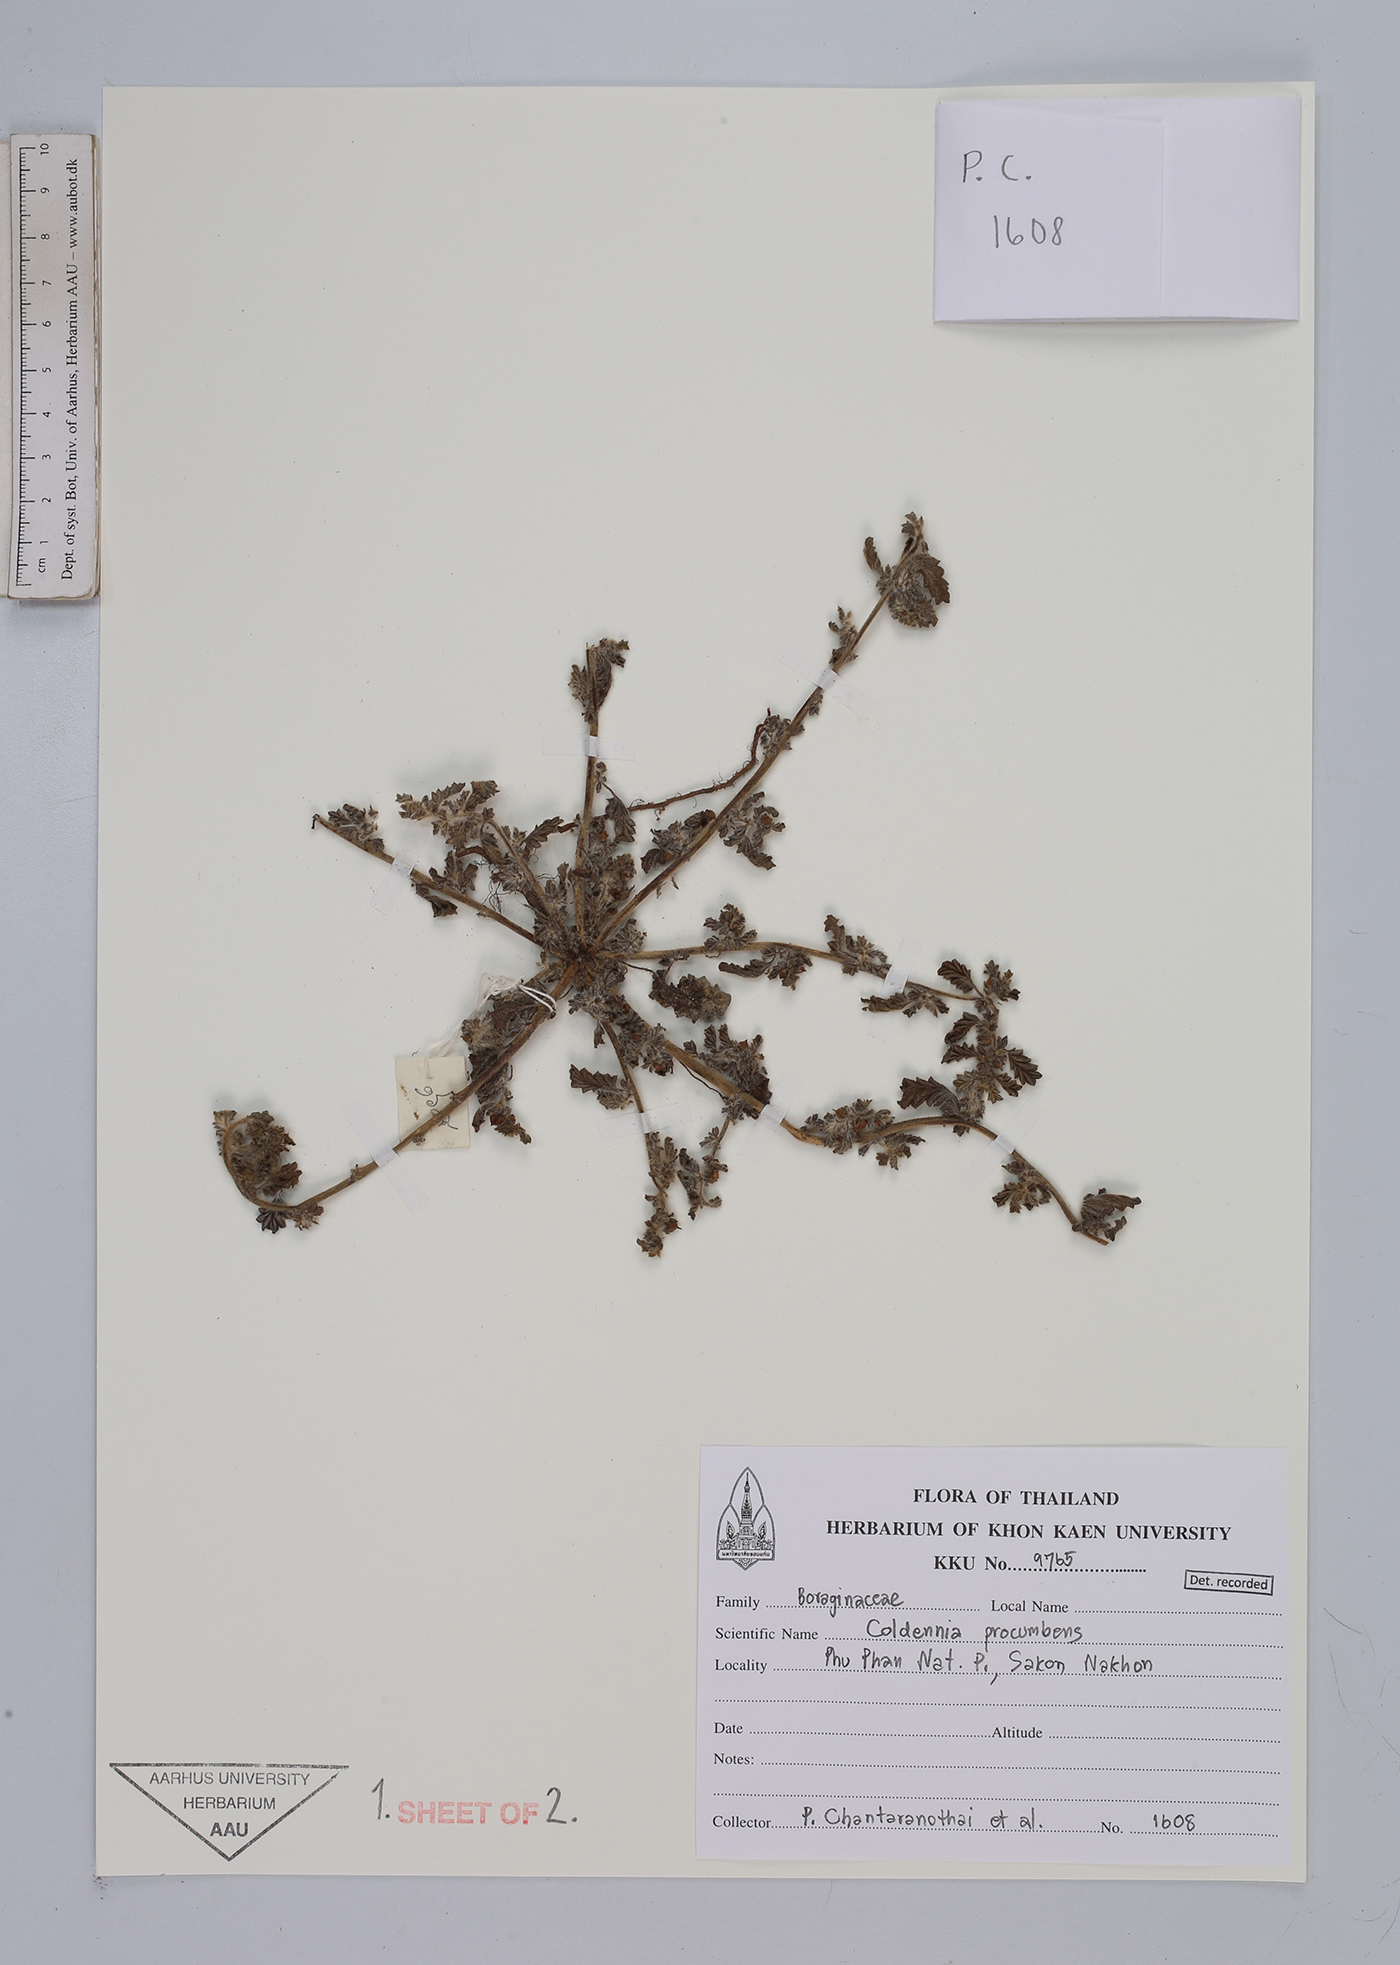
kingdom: Plantae
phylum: Tracheophyta
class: Magnoliopsida
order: Boraginales
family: Coldeniaceae
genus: Coldenia
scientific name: Coldenia procumbens
